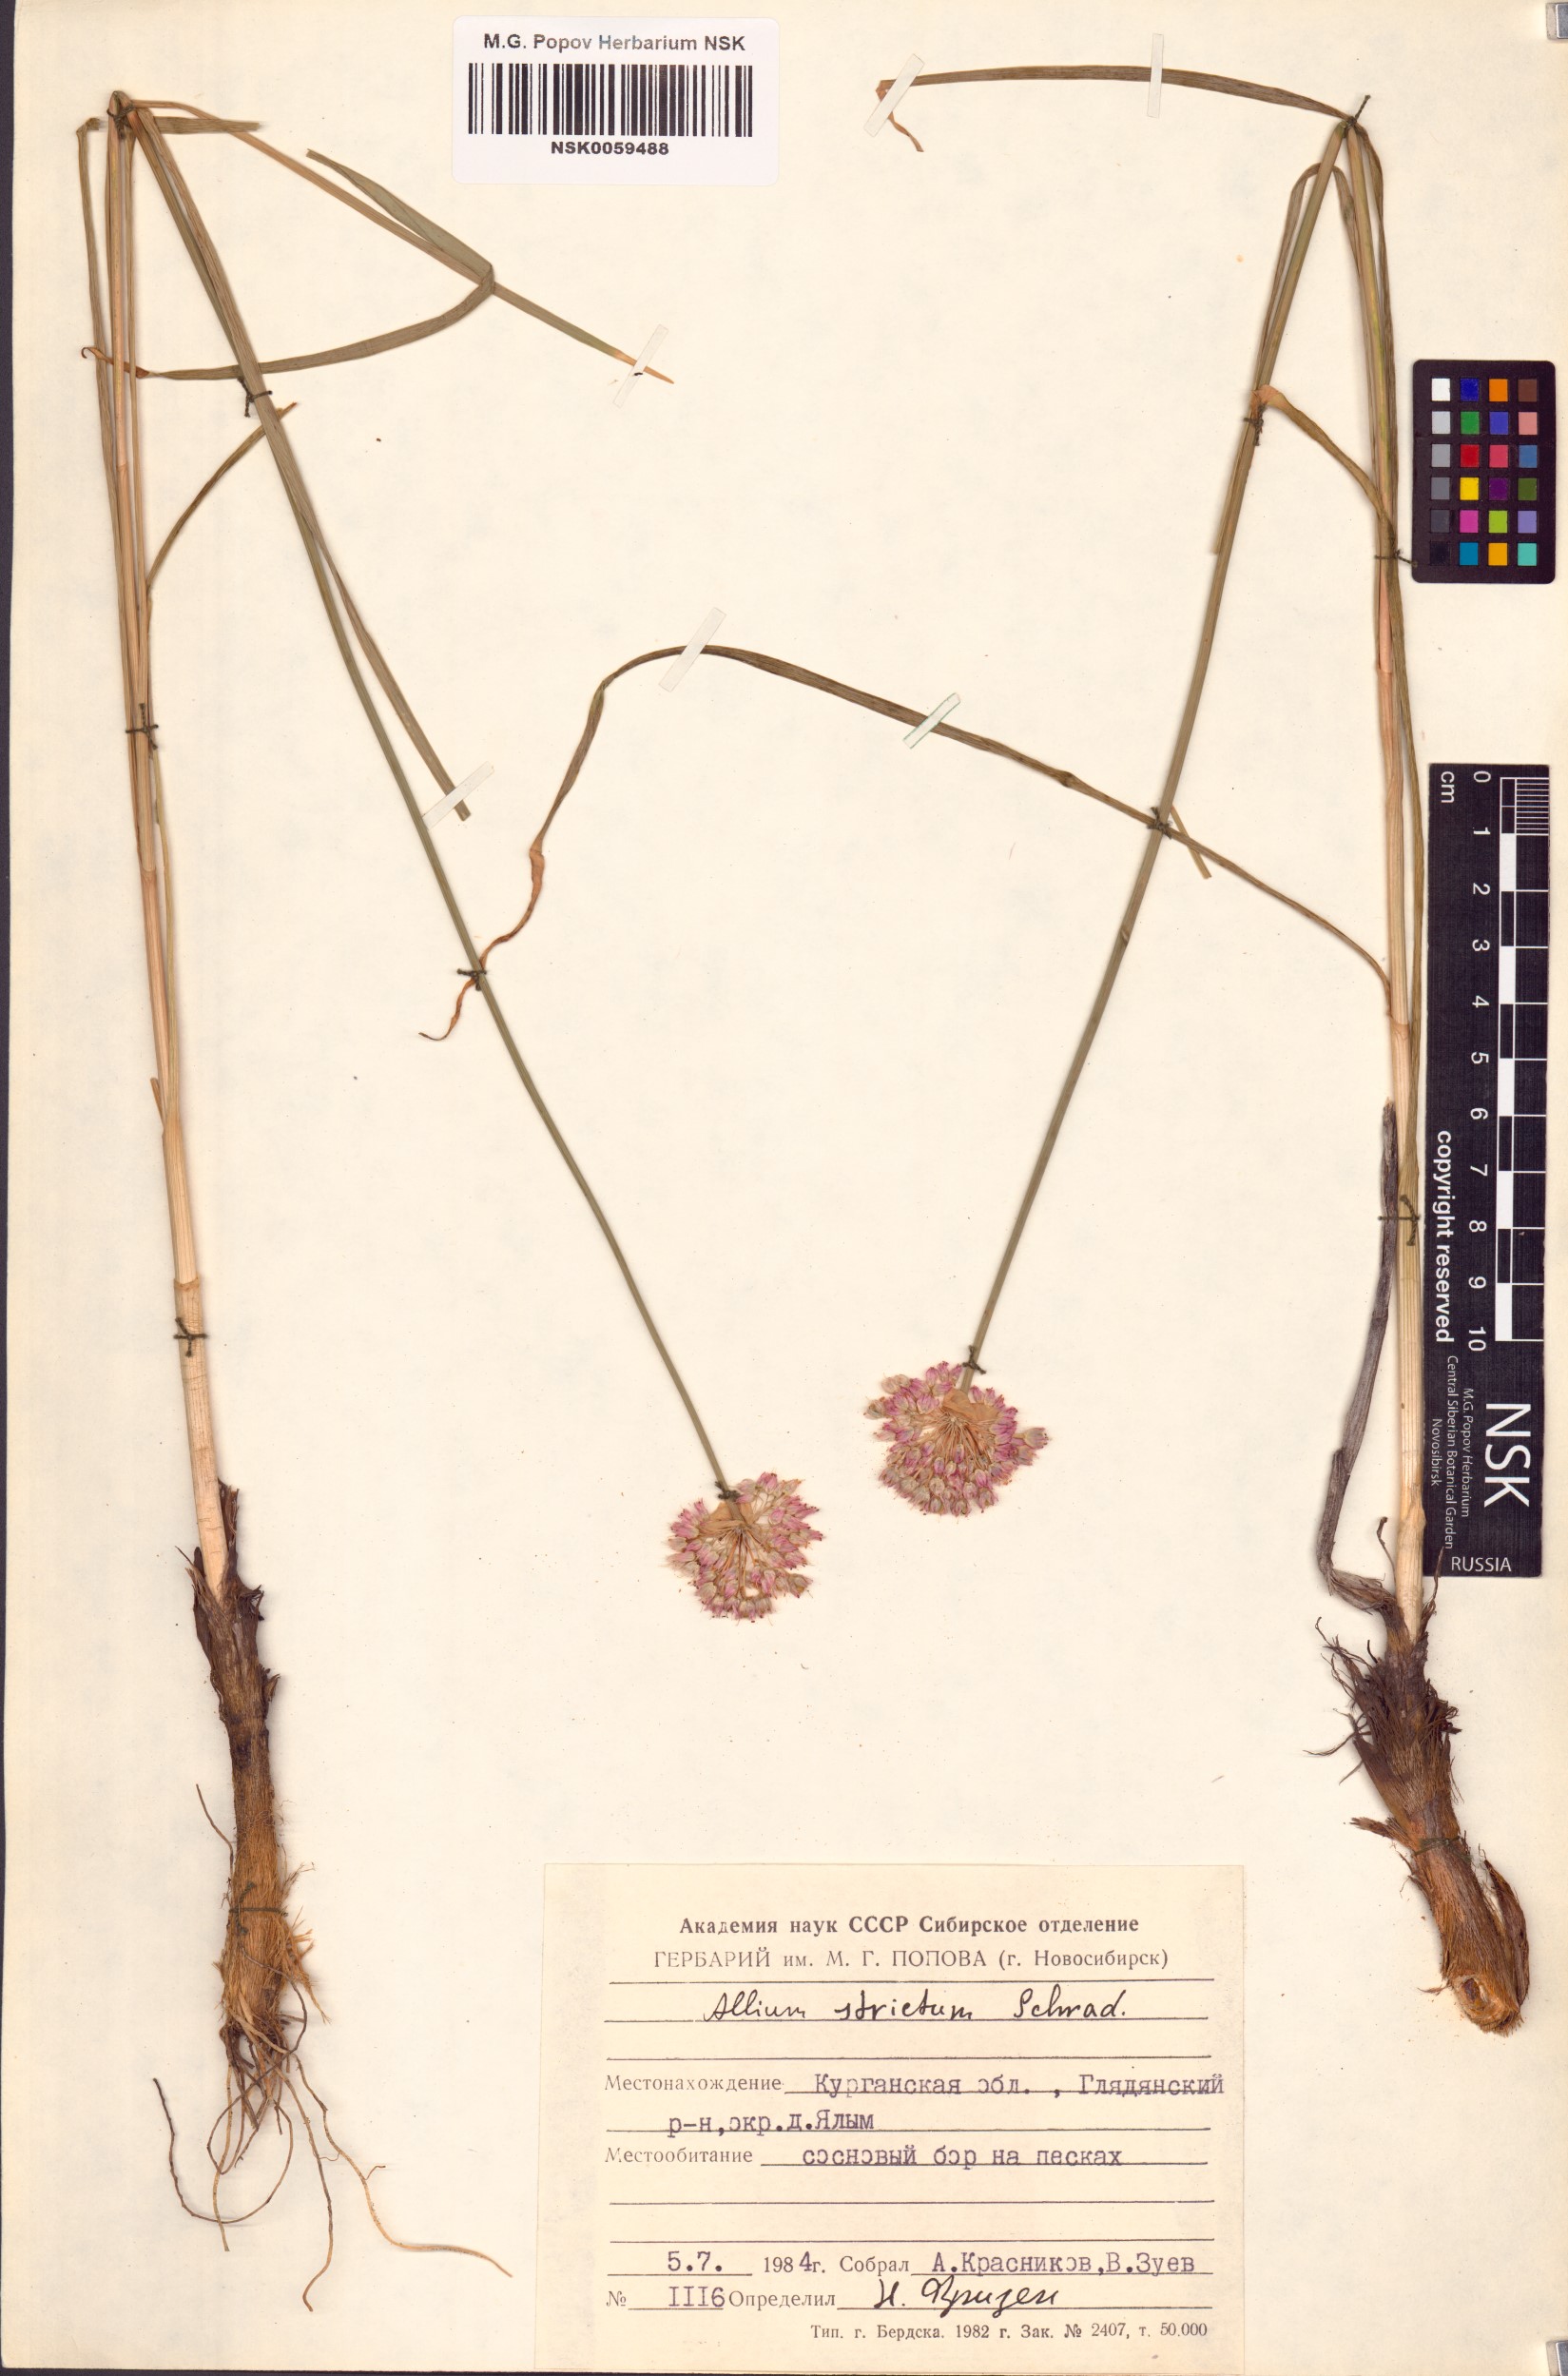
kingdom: Plantae
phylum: Tracheophyta
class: Liliopsida
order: Asparagales
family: Amaryllidaceae
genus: Allium
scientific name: Allium strictum
